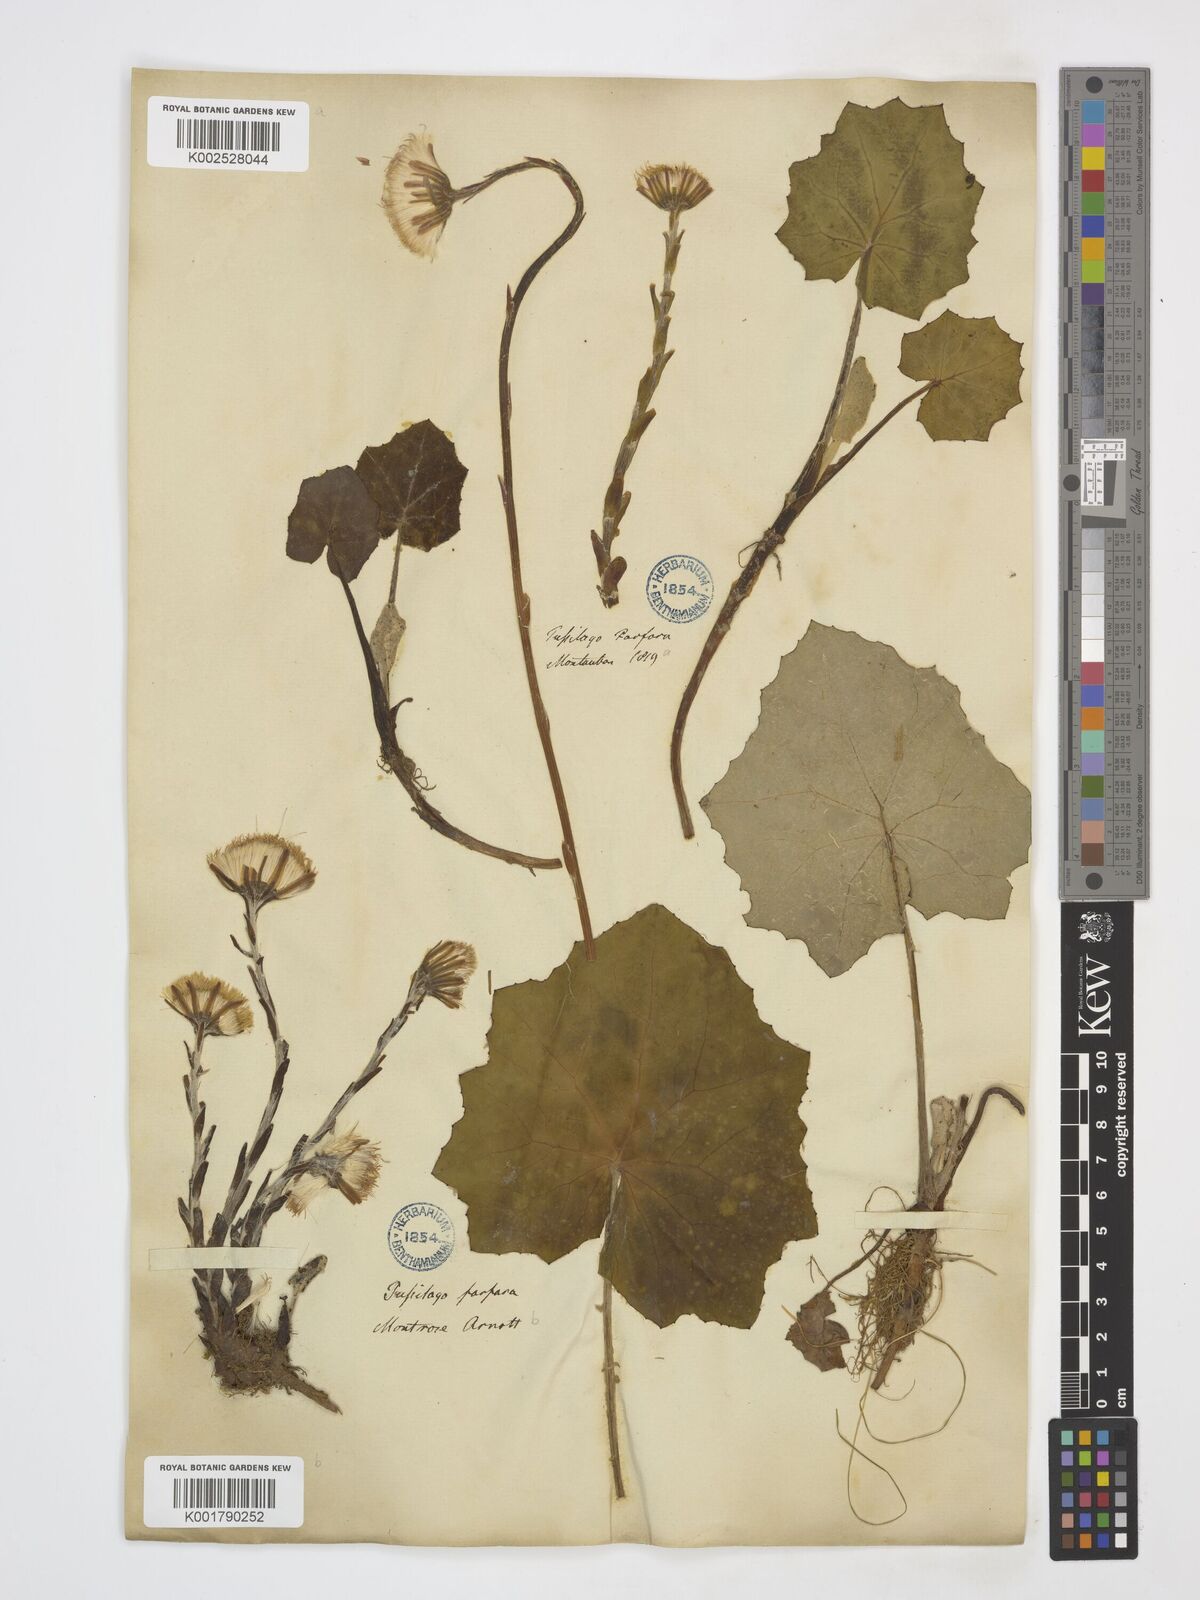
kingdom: Plantae
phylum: Tracheophyta
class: Magnoliopsida
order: Asterales
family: Asteraceae
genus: Tussilago
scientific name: Tussilago farfara
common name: Coltsfoot
